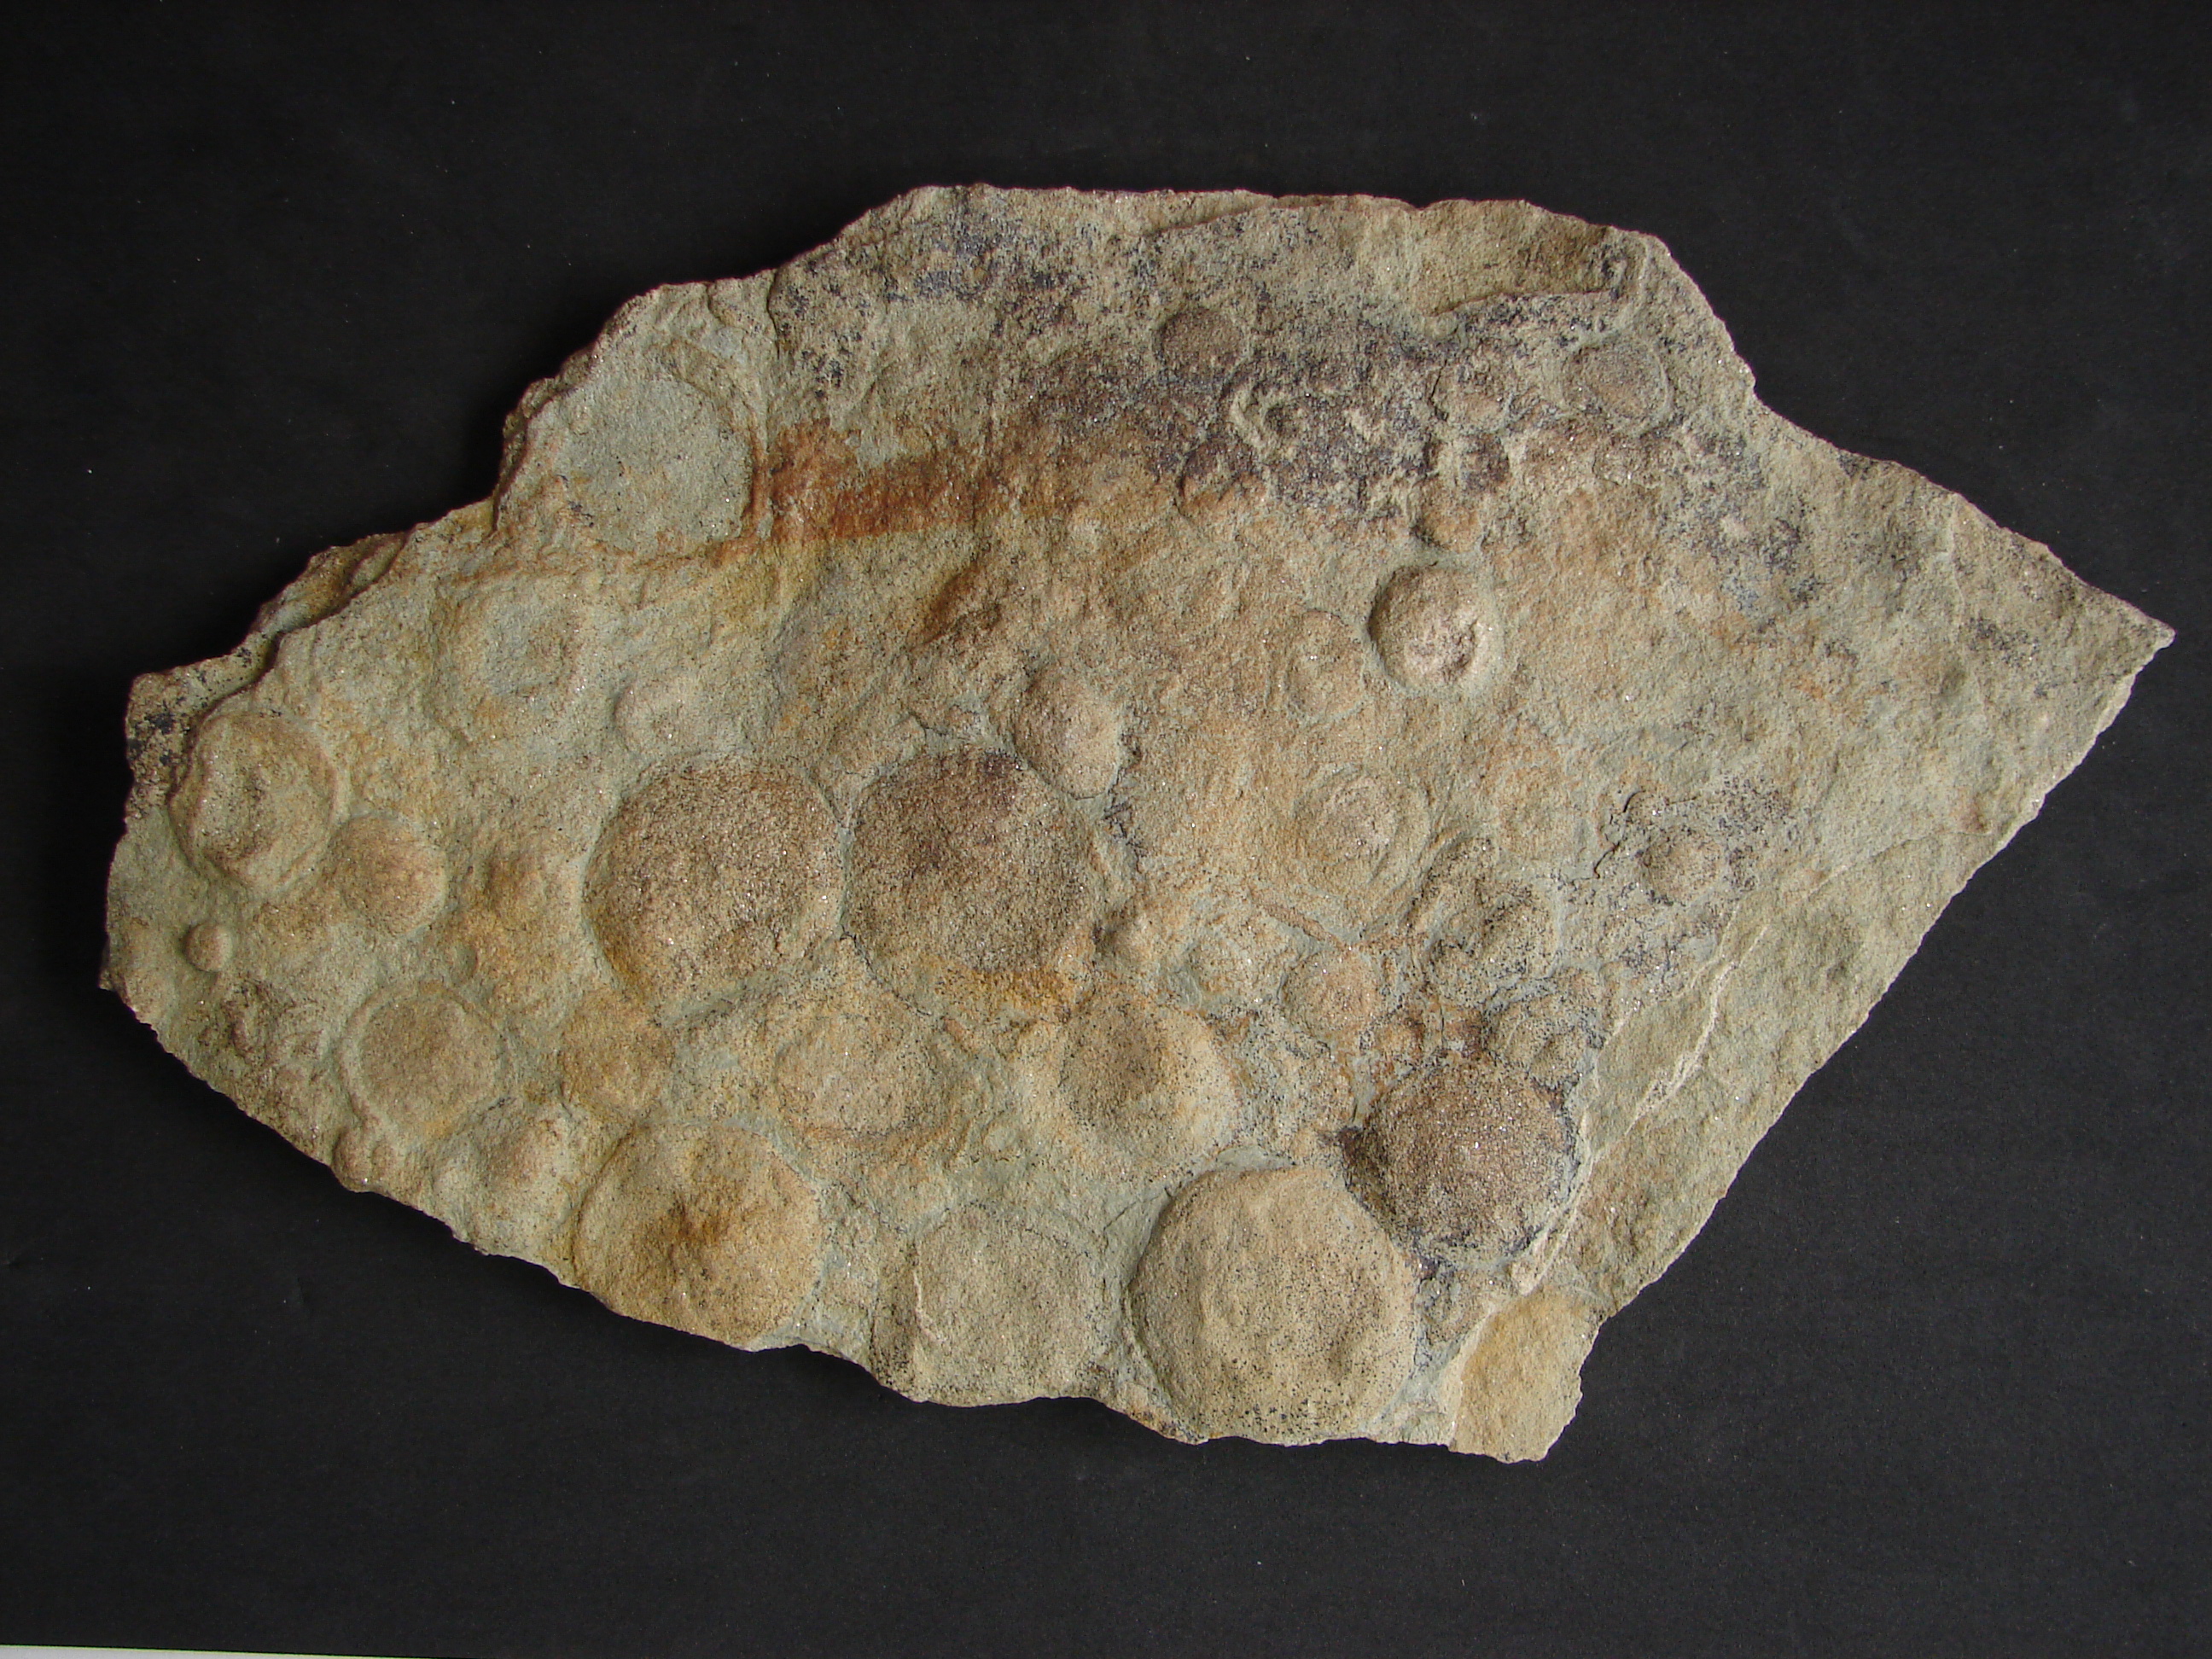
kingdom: Animalia
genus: Nemiana
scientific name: Nemiana simplex
